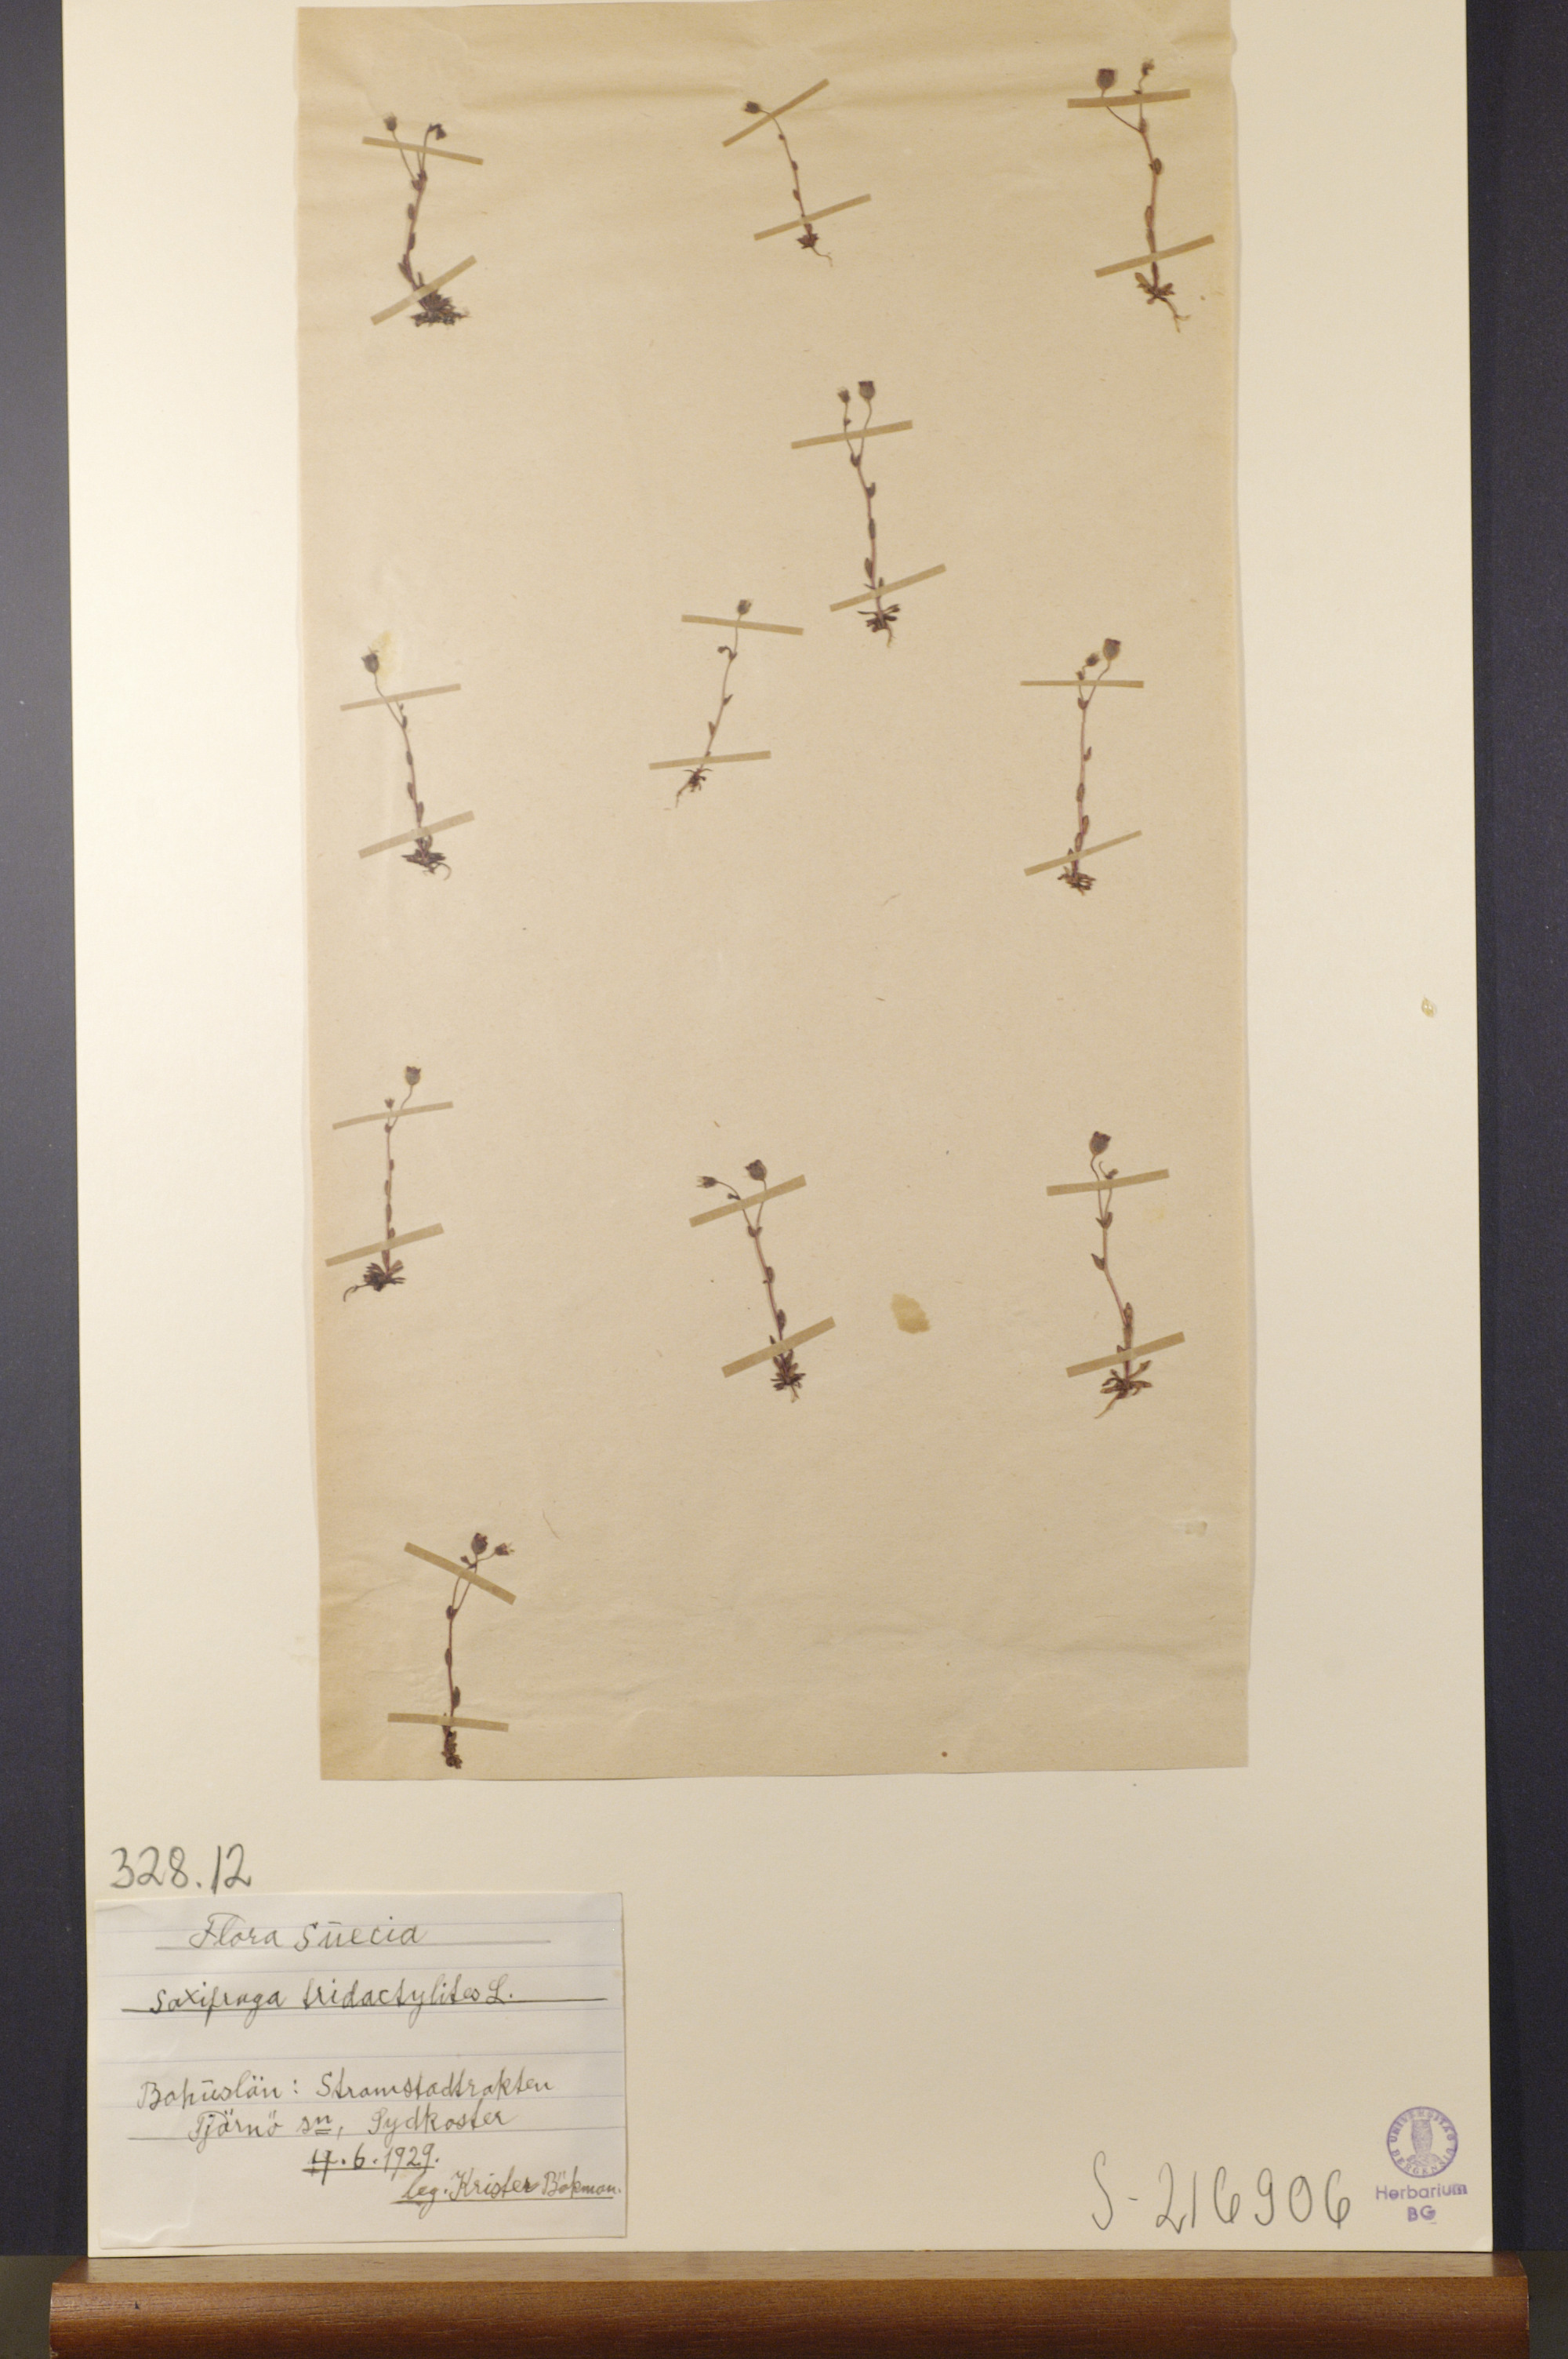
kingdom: Plantae
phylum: Tracheophyta
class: Magnoliopsida
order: Saxifragales
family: Saxifragaceae
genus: Saxifraga
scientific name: Saxifraga tridactylites
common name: Rue-leaved saxifrage
